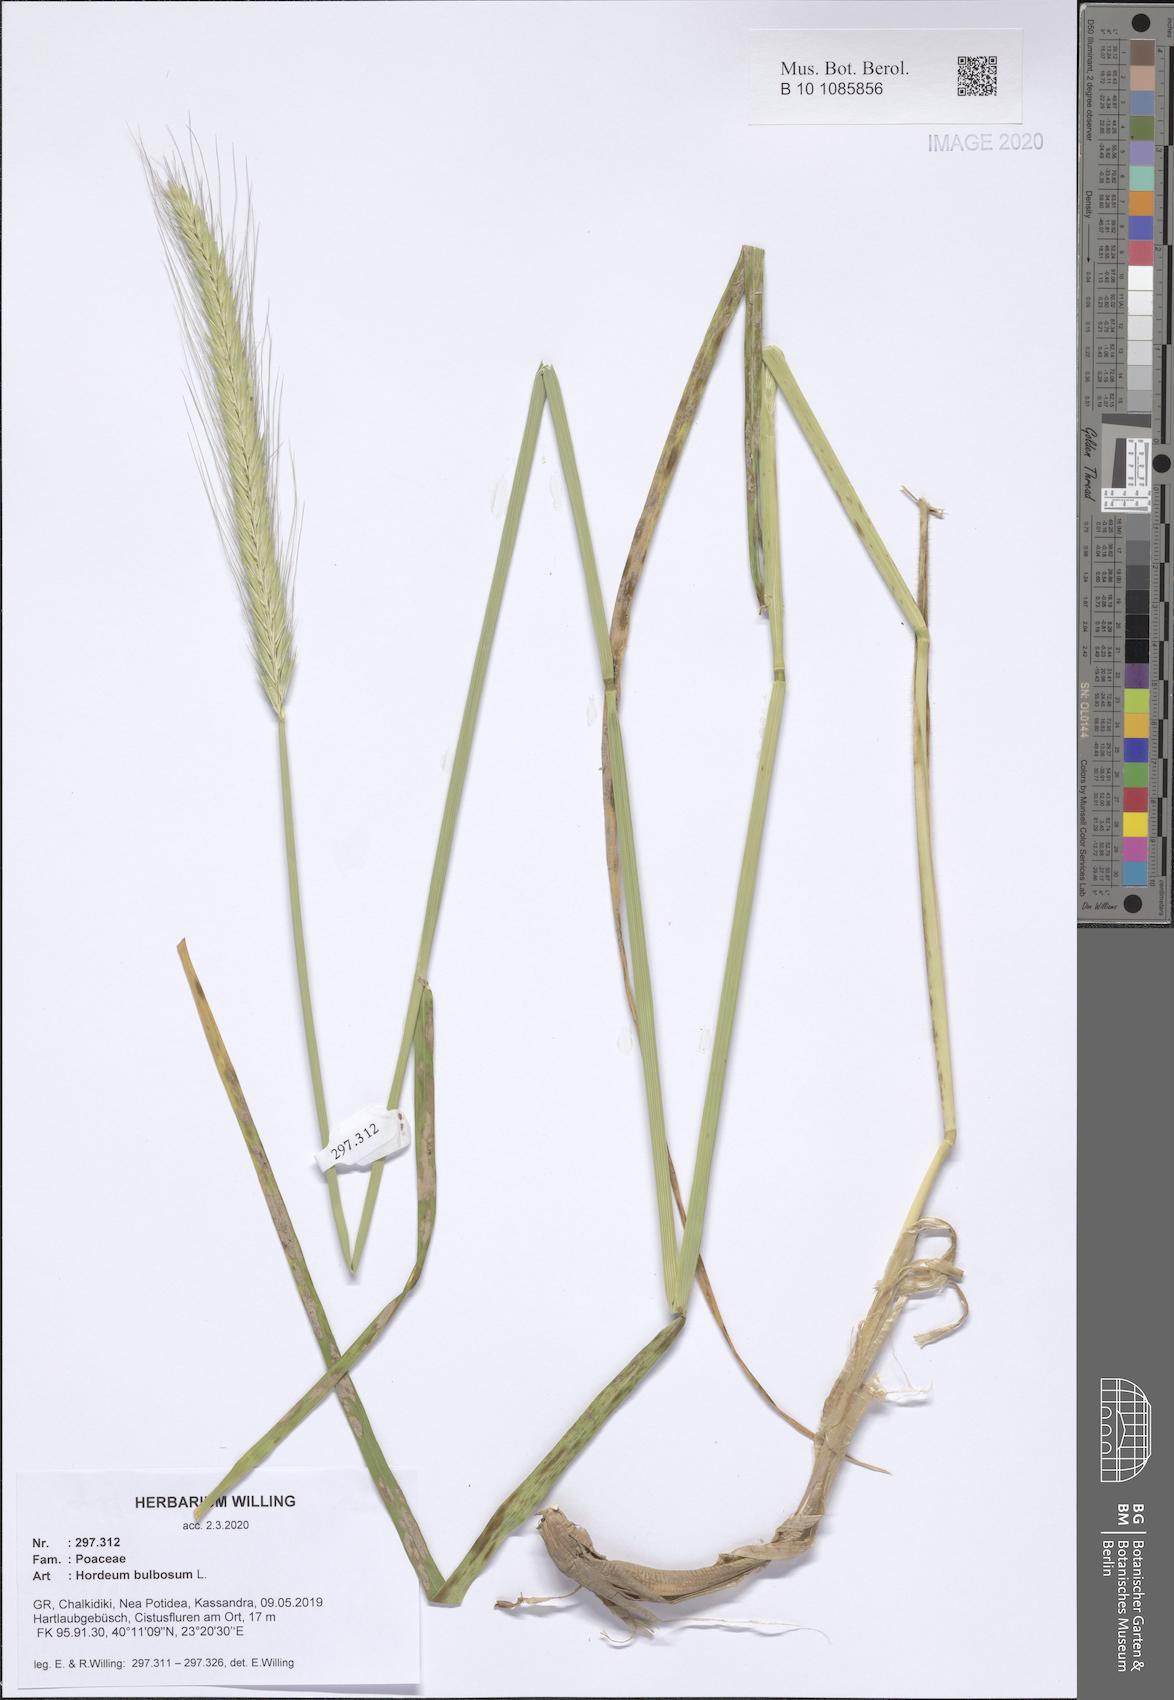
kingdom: Plantae
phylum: Tracheophyta
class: Liliopsida
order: Poales
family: Poaceae
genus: Hordeum
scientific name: Hordeum bulbosum
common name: Bulbous barley
